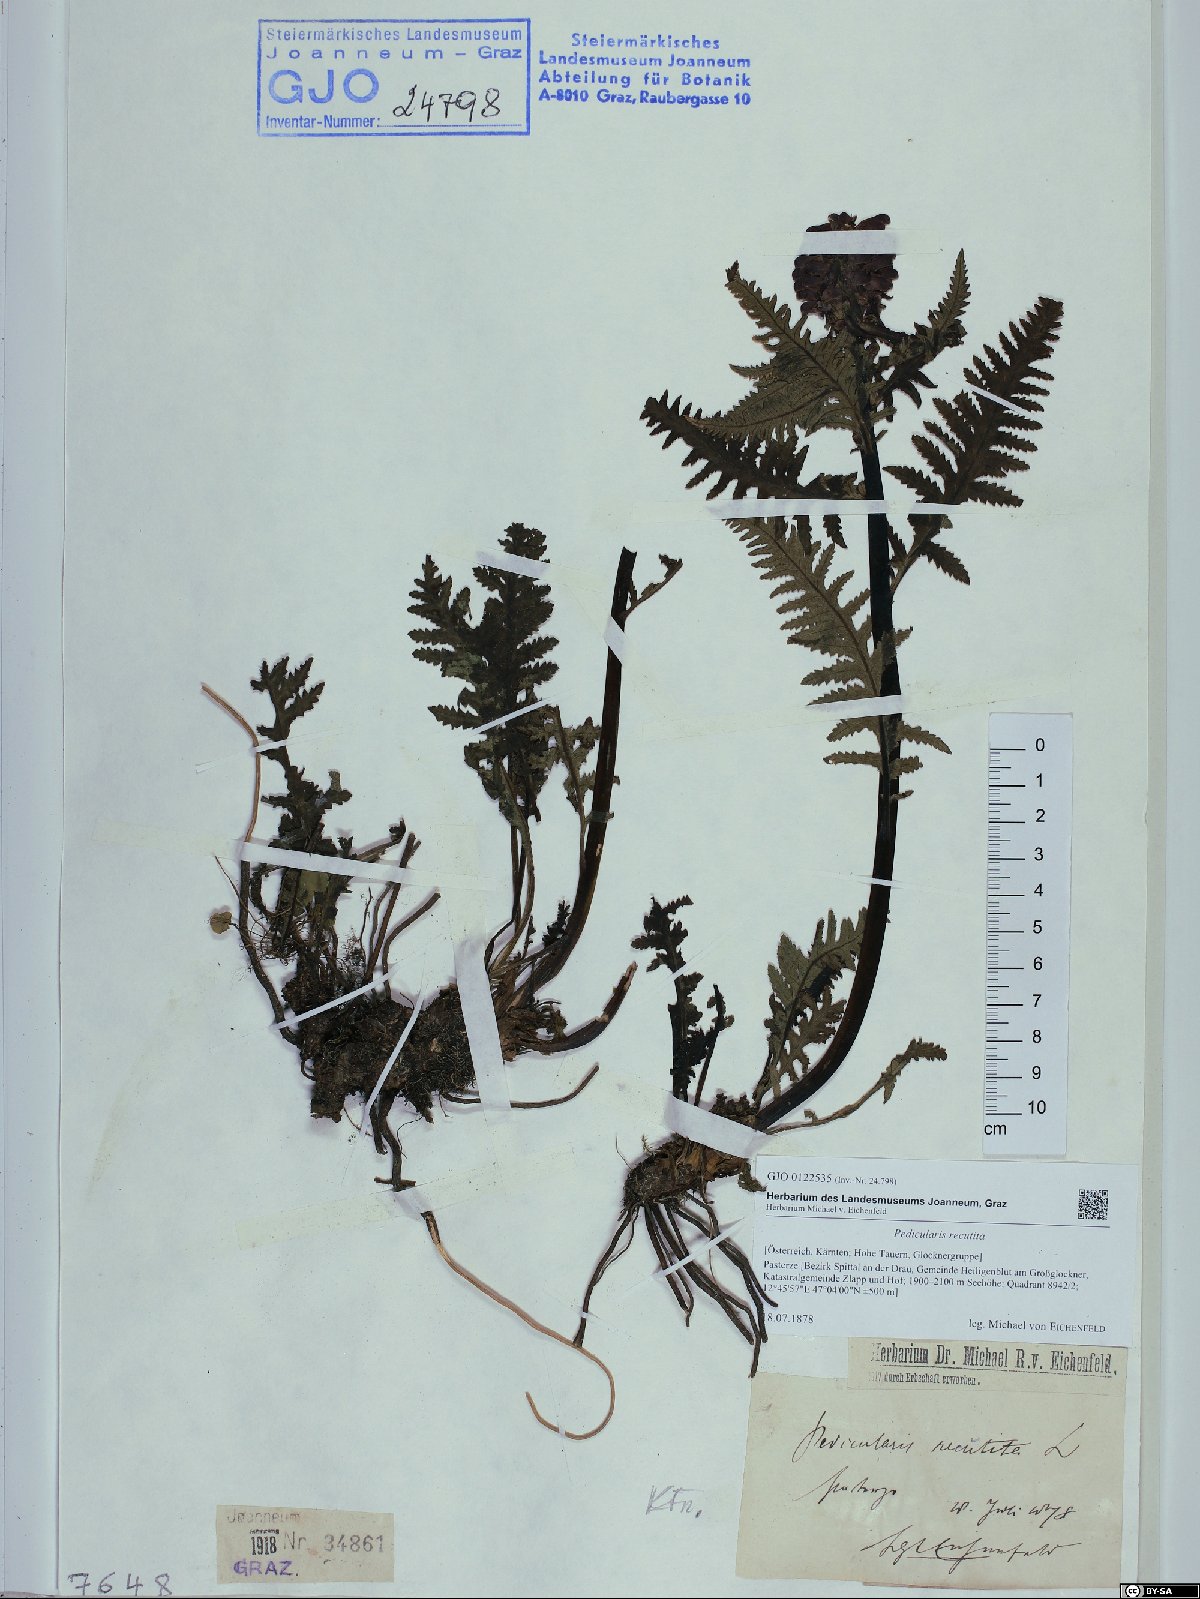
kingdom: Plantae
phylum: Tracheophyta
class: Magnoliopsida
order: Lamiales
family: Orobanchaceae
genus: Pedicularis
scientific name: Pedicularis recutita
